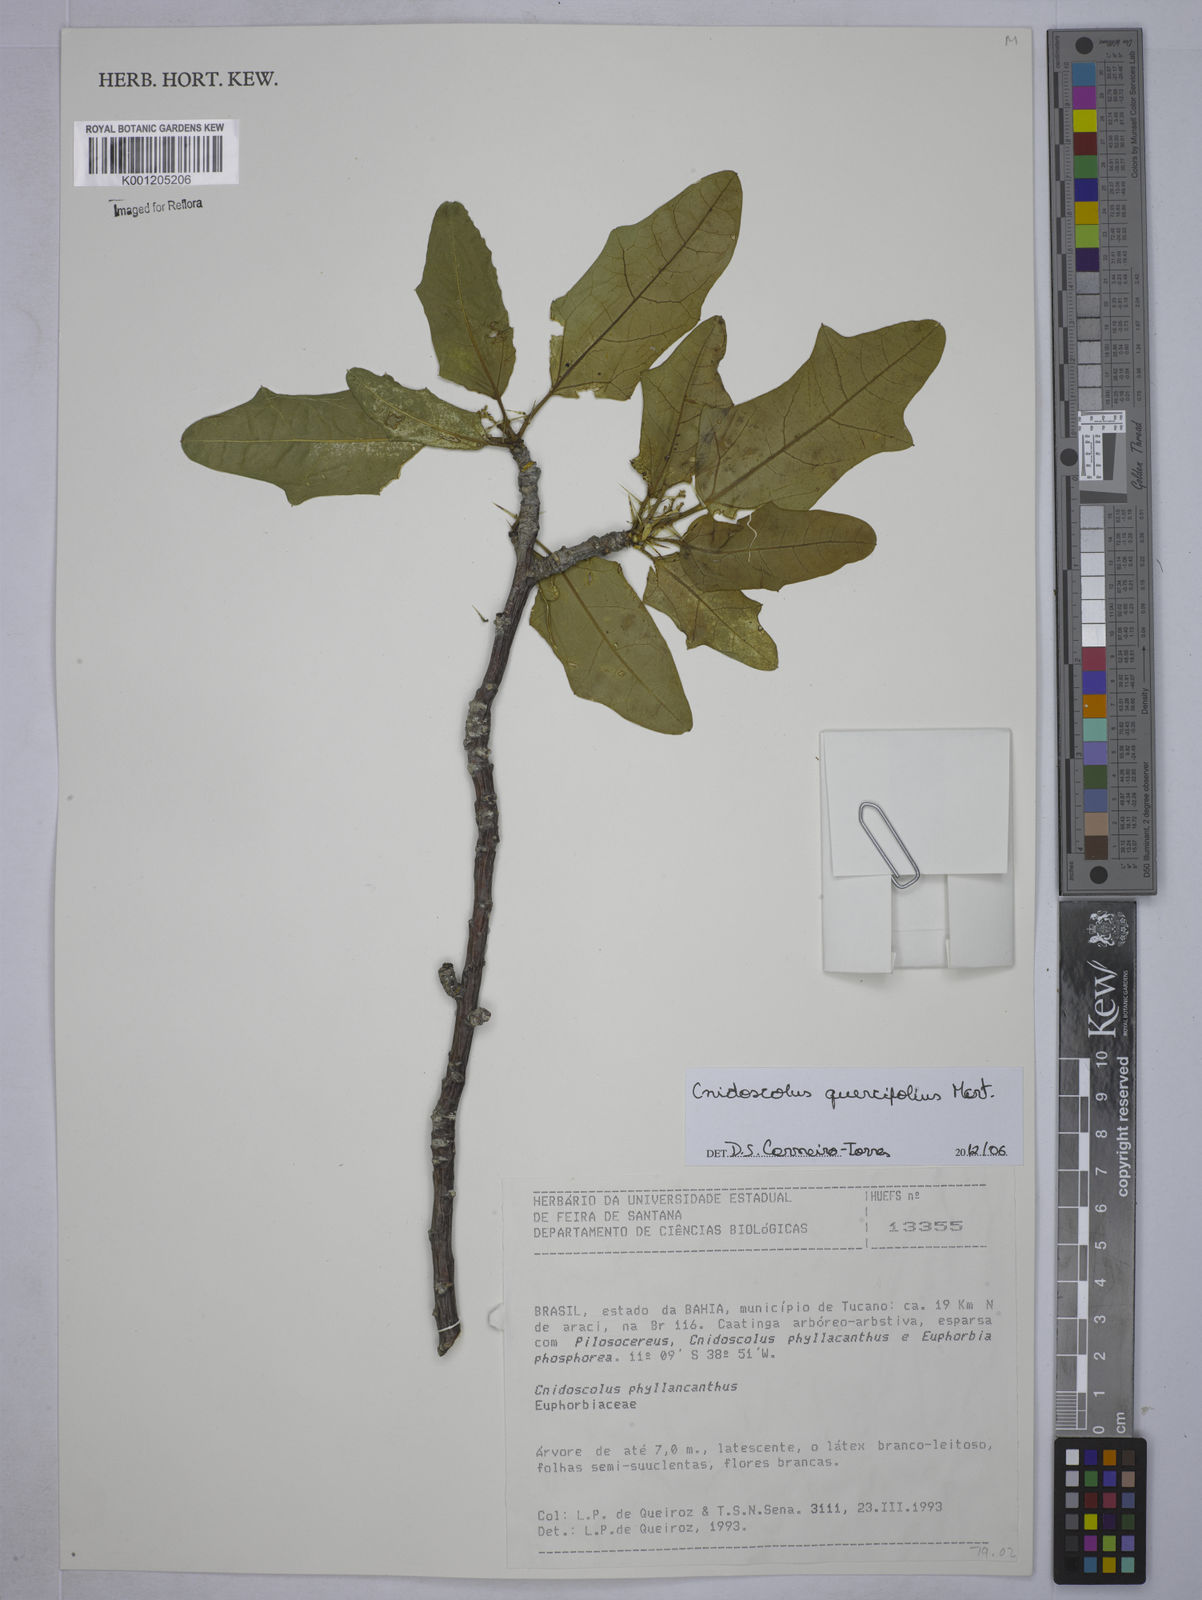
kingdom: Plantae
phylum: Tracheophyta
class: Magnoliopsida
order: Malpighiales
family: Euphorbiaceae
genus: Cnidoscolus
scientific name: Cnidoscolus quercifolius
